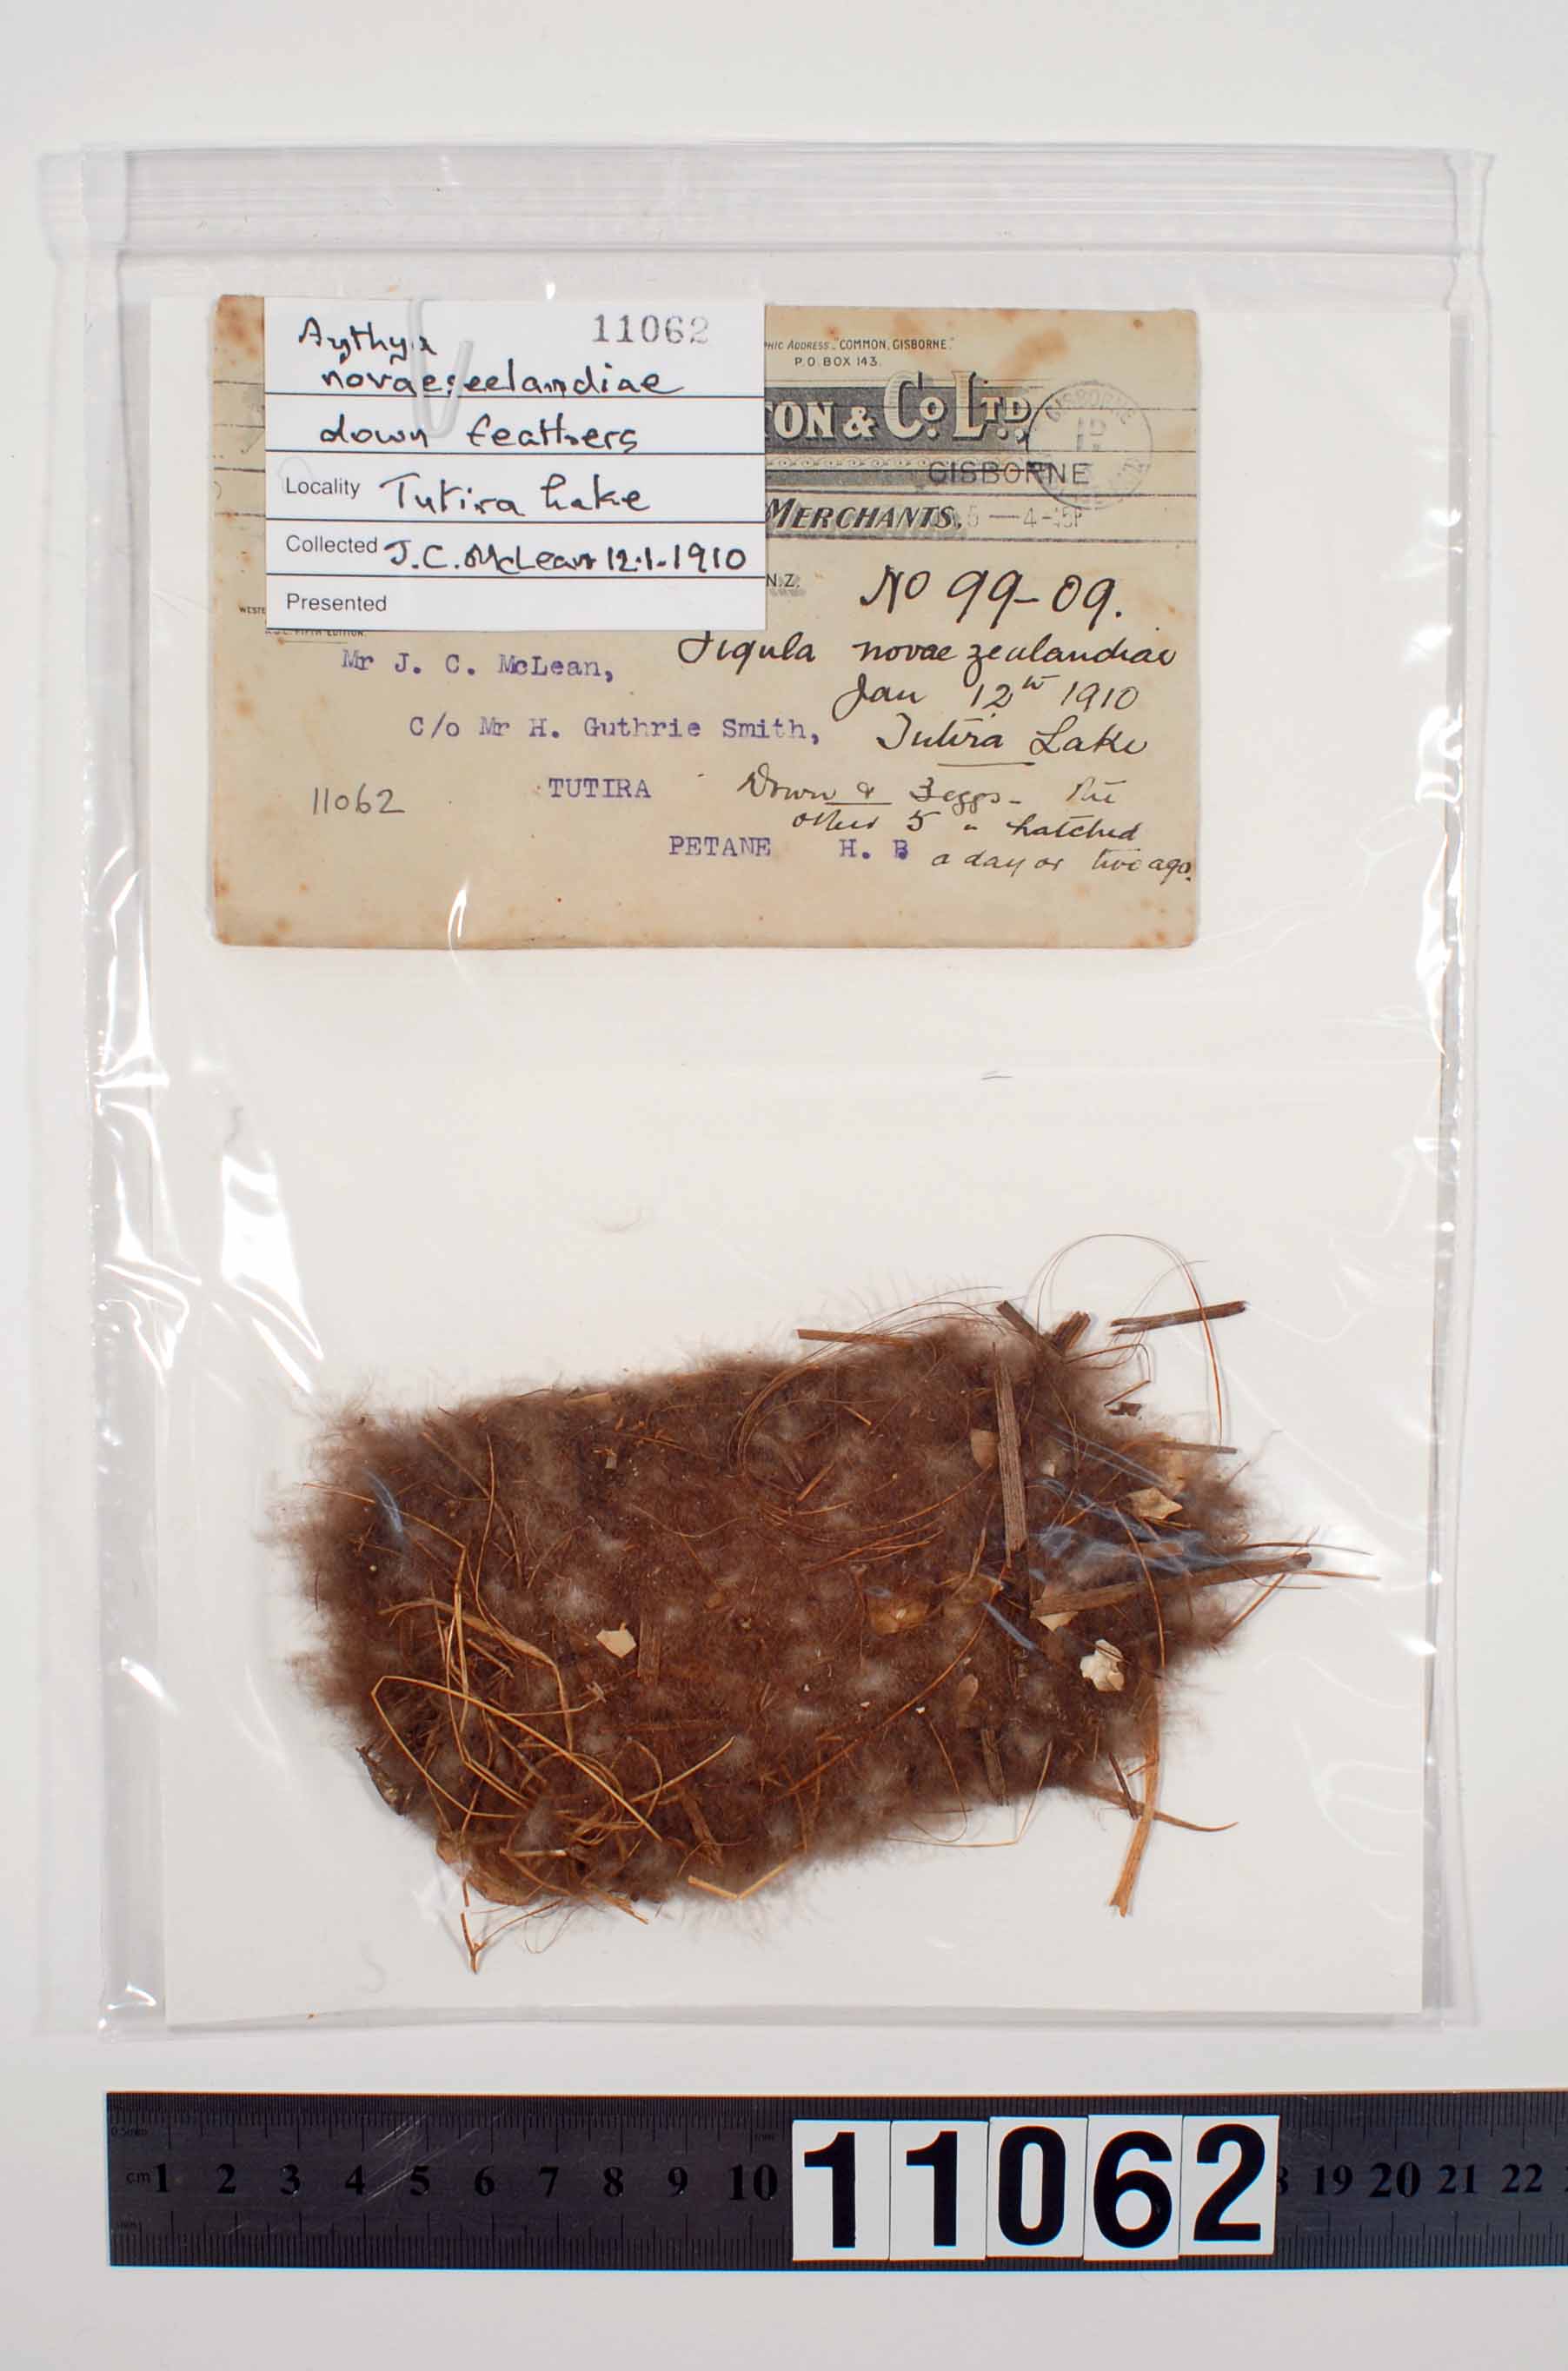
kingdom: Animalia
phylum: Chordata
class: Aves
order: Anseriformes
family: Anatidae
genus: Aythya
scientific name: Aythya novaeseelandiae
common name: New zealand scaup
